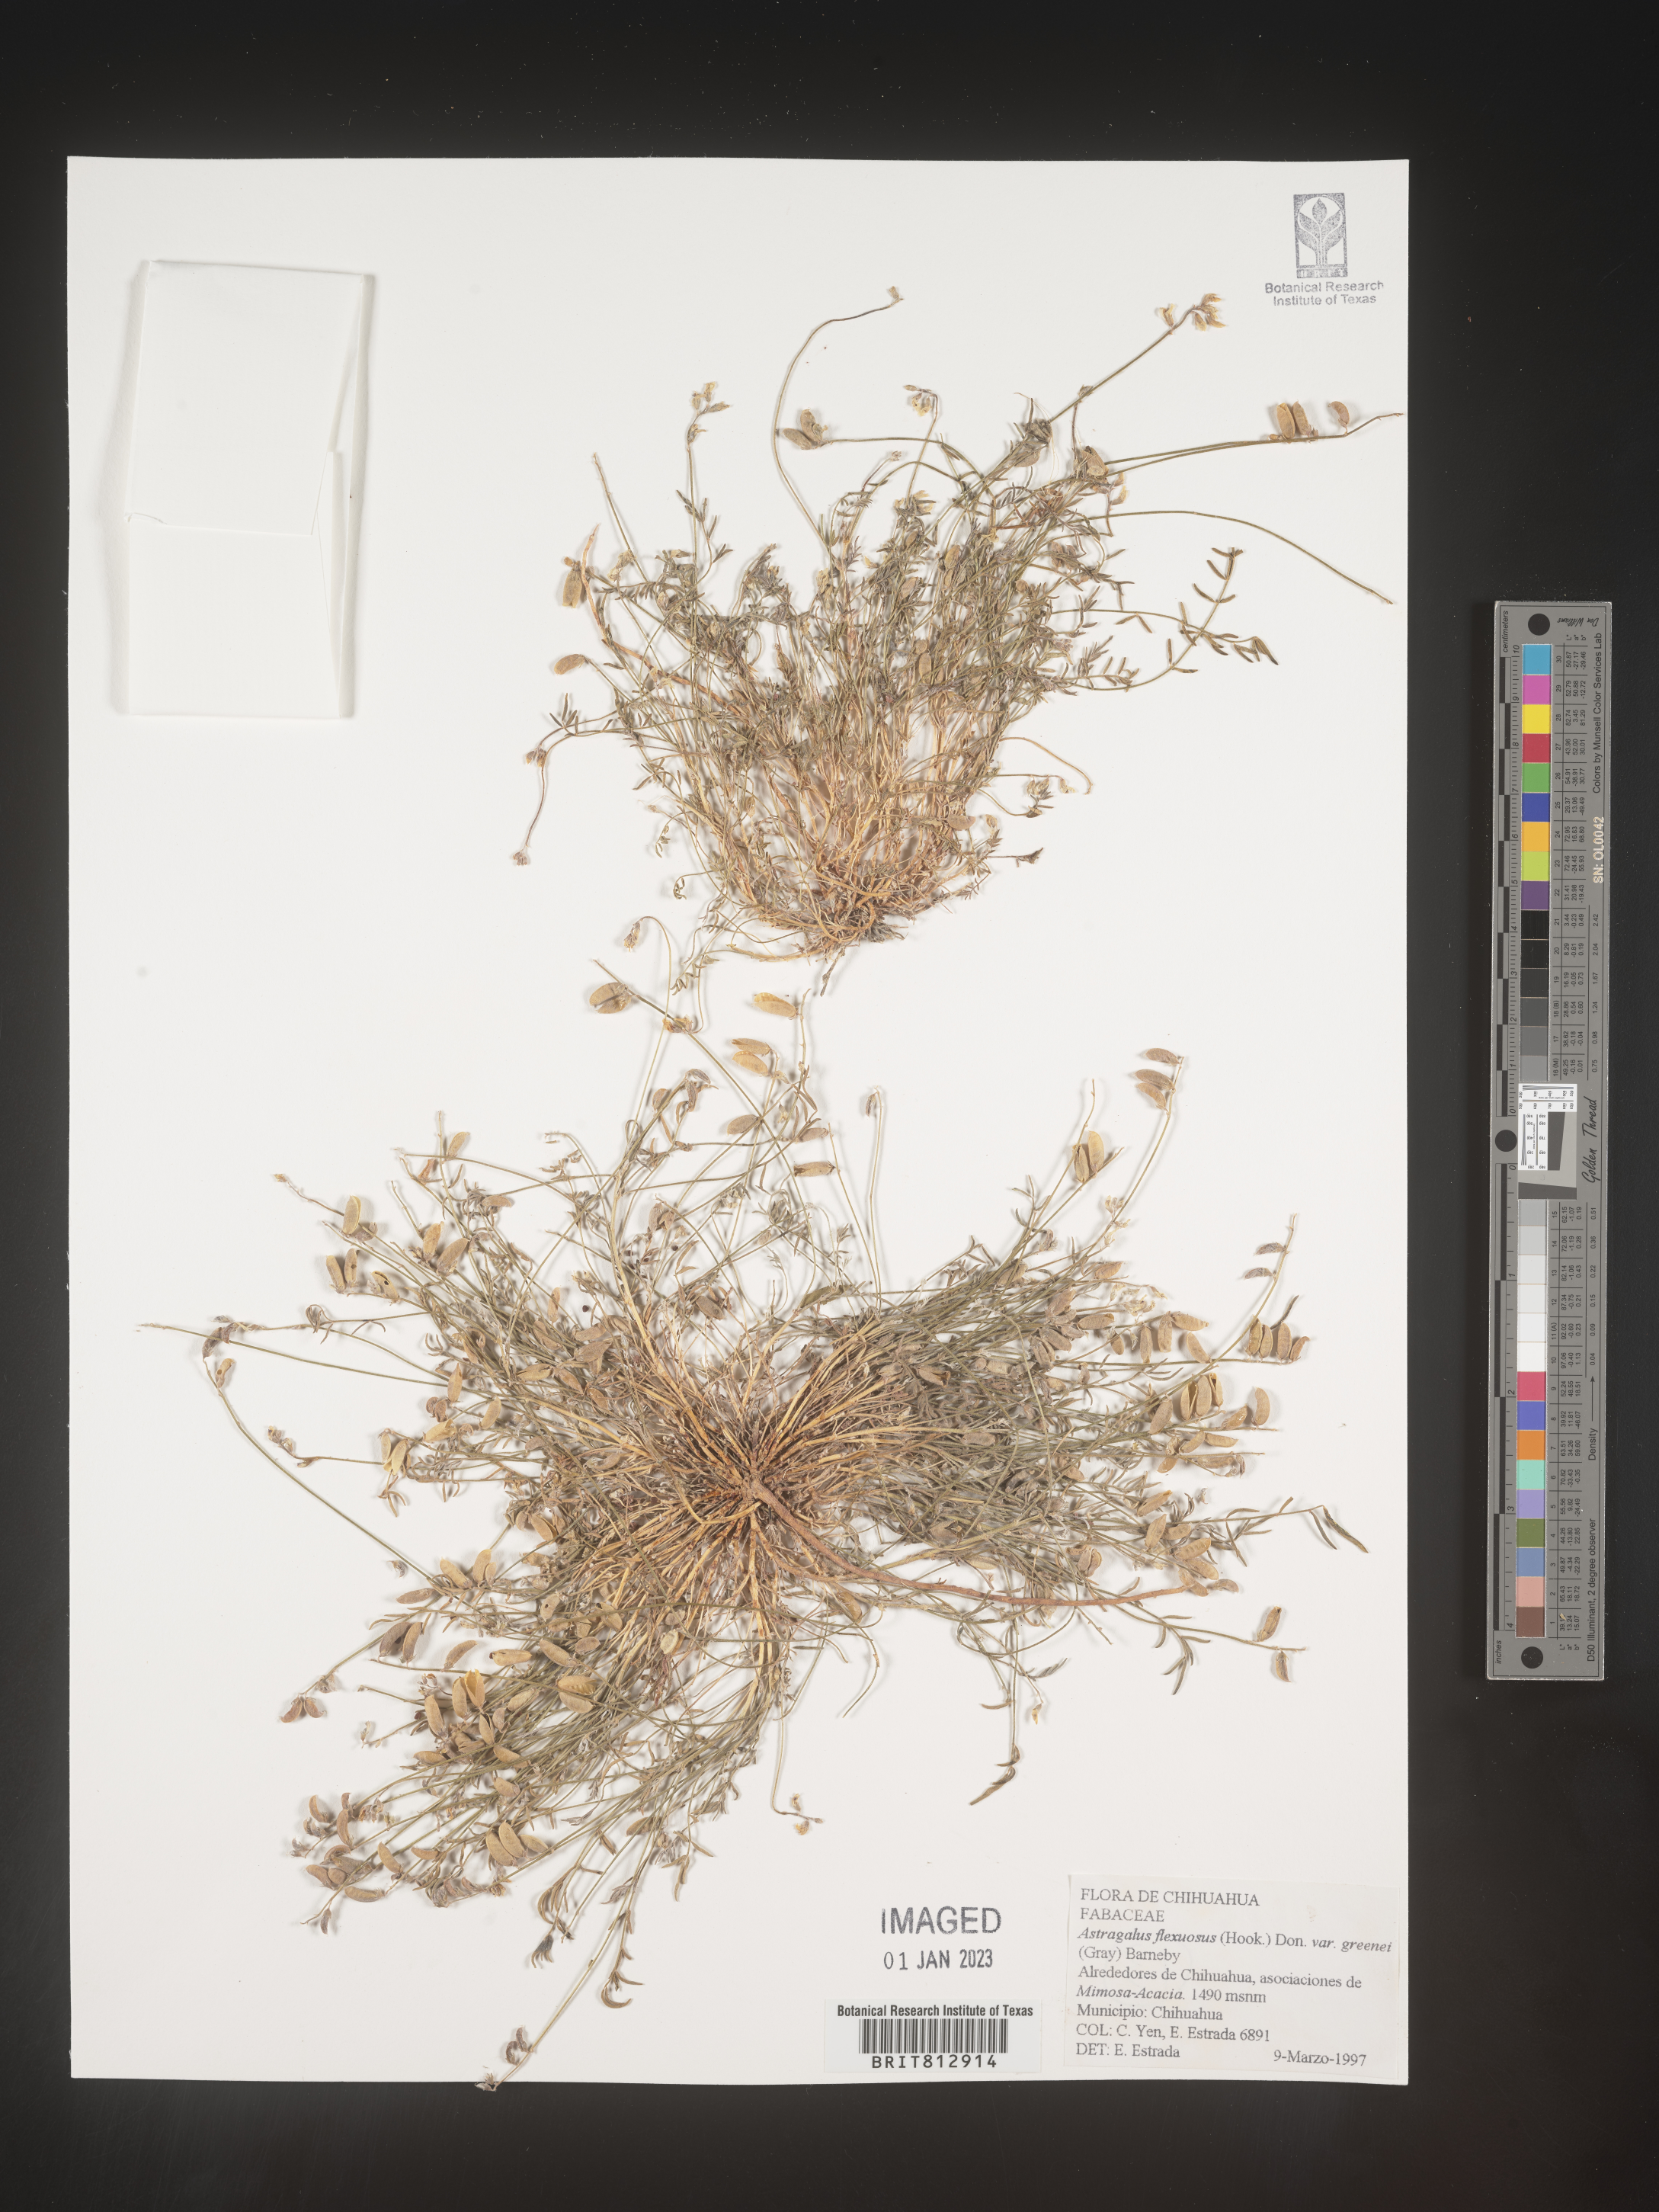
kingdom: Plantae
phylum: Tracheophyta
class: Magnoliopsida
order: Fabales
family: Fabaceae
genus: Astragalus
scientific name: Astragalus
